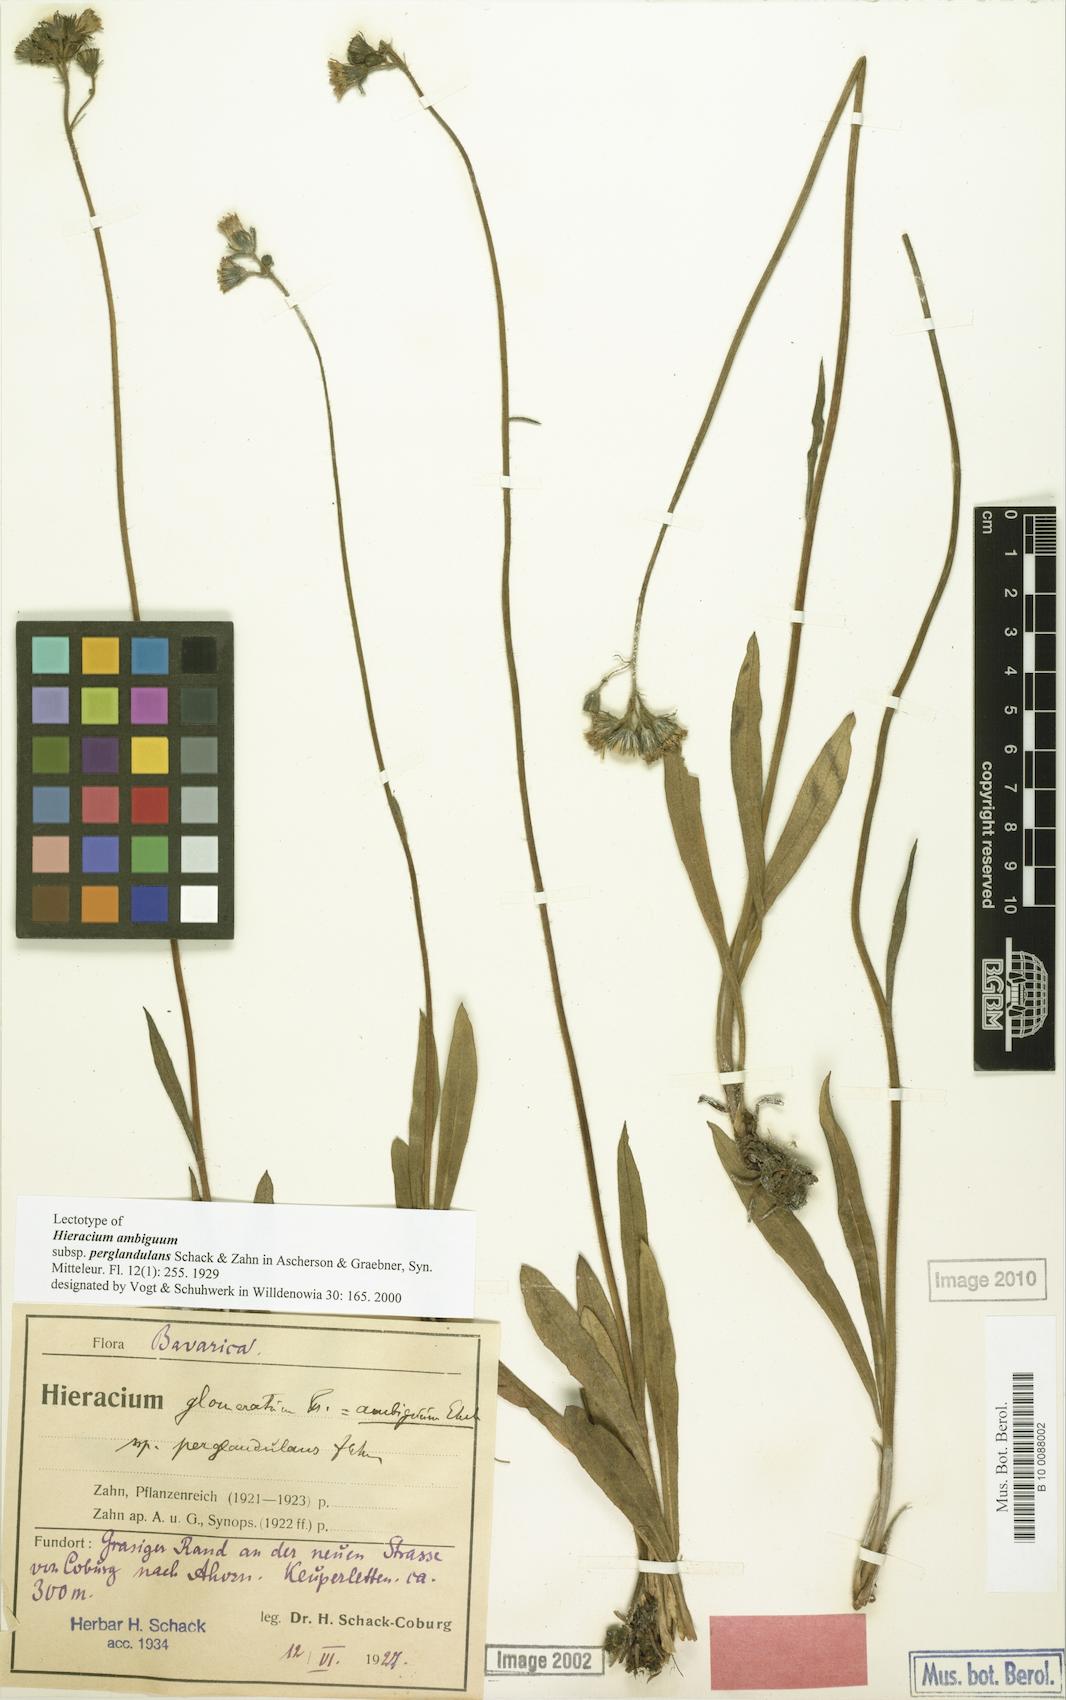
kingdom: Plantae
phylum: Tracheophyta
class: Magnoliopsida
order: Asterales
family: Asteraceae
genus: Pilosella
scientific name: Pilosella glomerata
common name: Queen devil hawkweed
